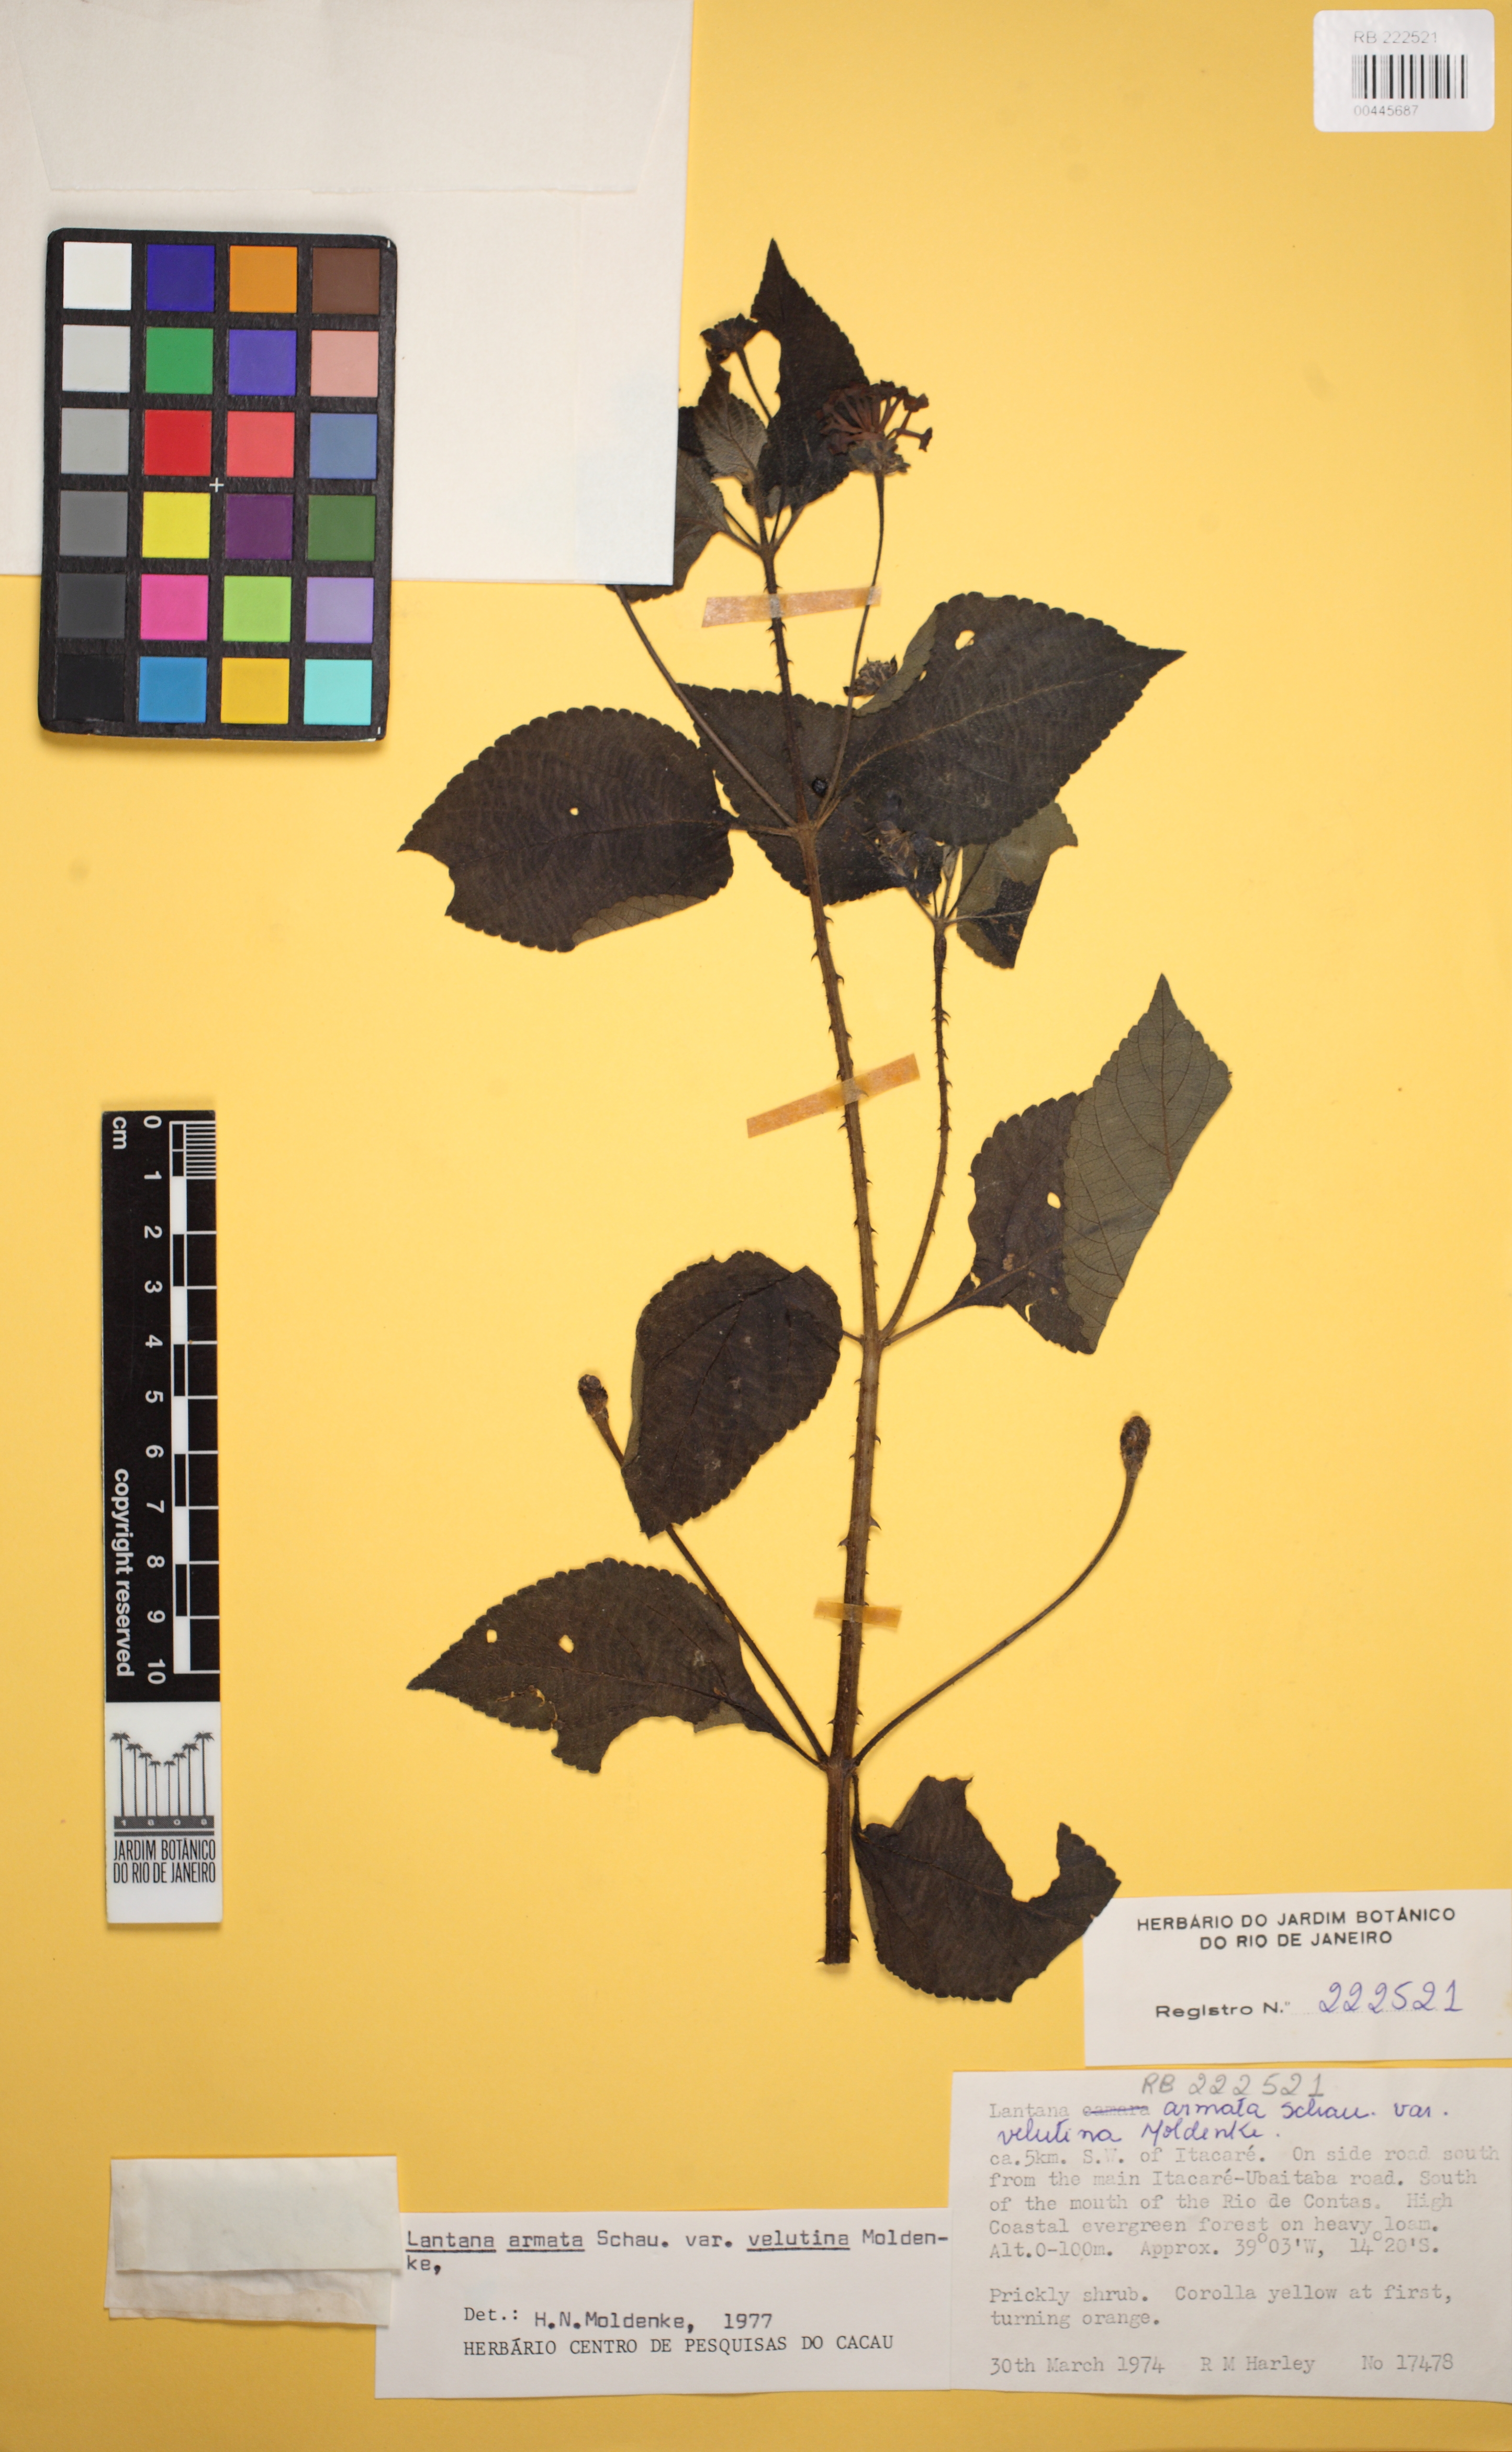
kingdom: Plantae
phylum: Tracheophyta
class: Magnoliopsida
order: Lamiales
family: Verbenaceae
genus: Lantana
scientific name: Lantana armata
